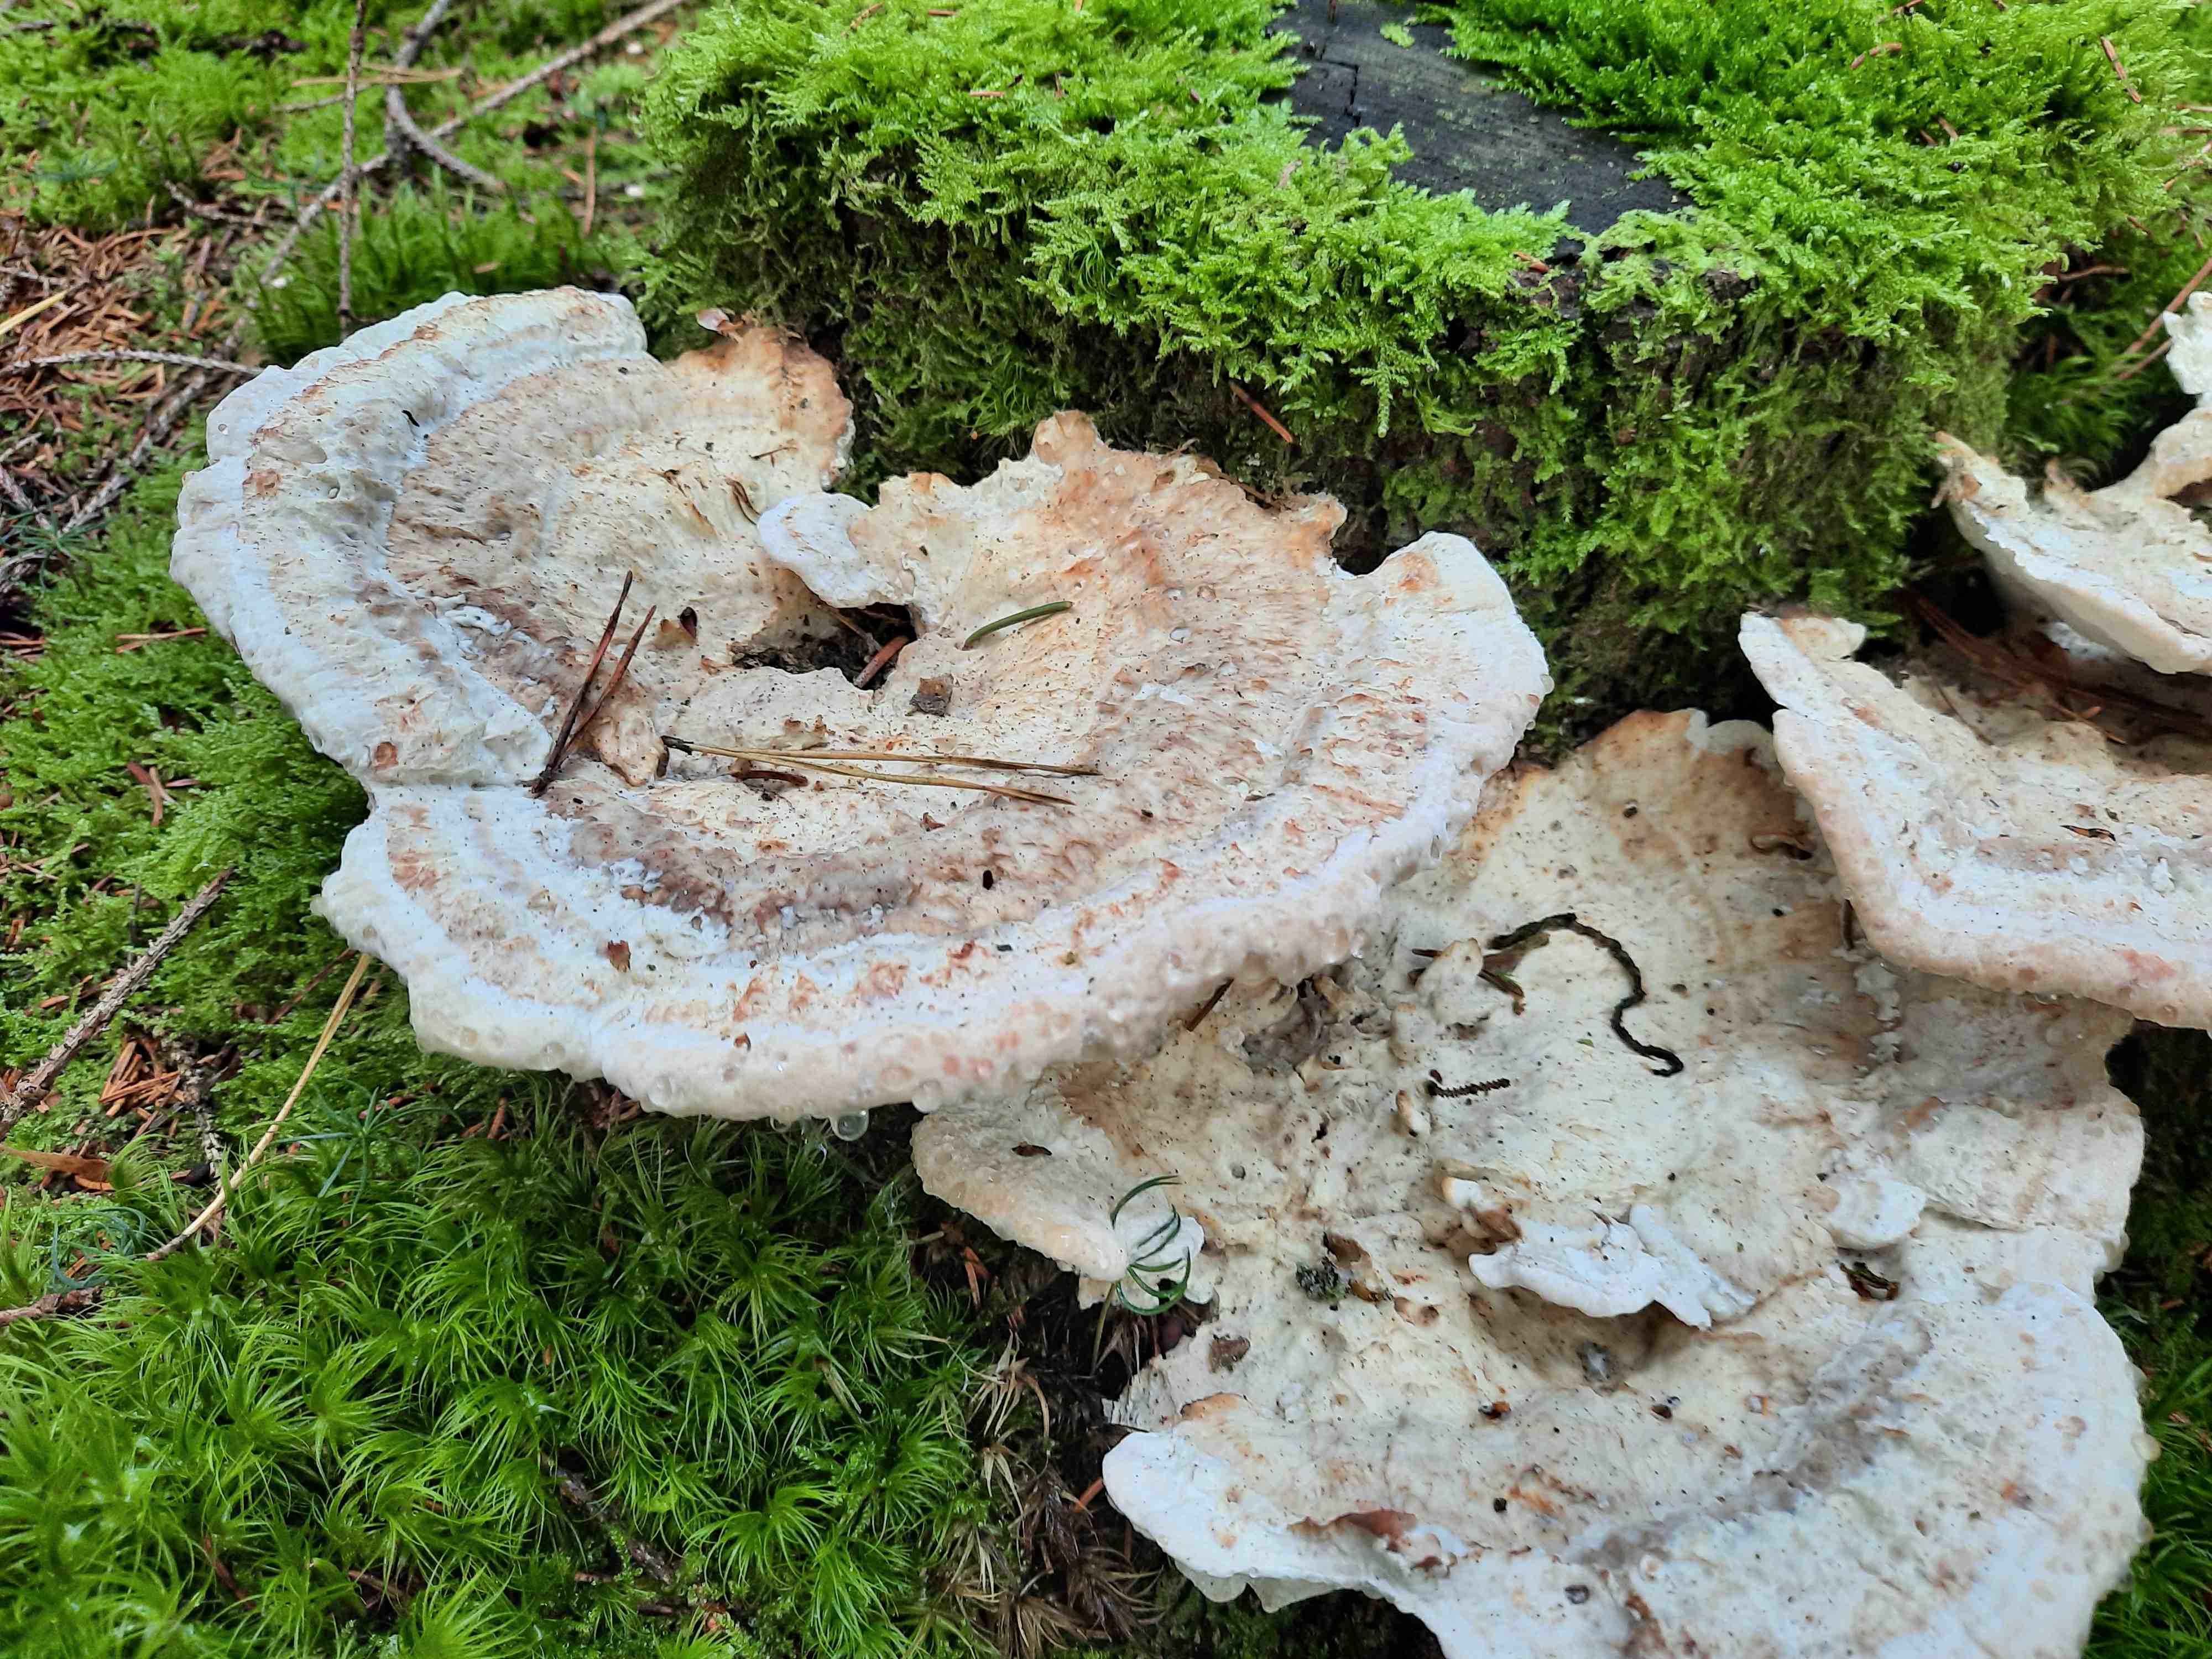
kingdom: Fungi
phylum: Basidiomycota
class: Agaricomycetes
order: Polyporales
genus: Calcipostia
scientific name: Calcipostia guttulata
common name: dråbe-kødporesvamp
